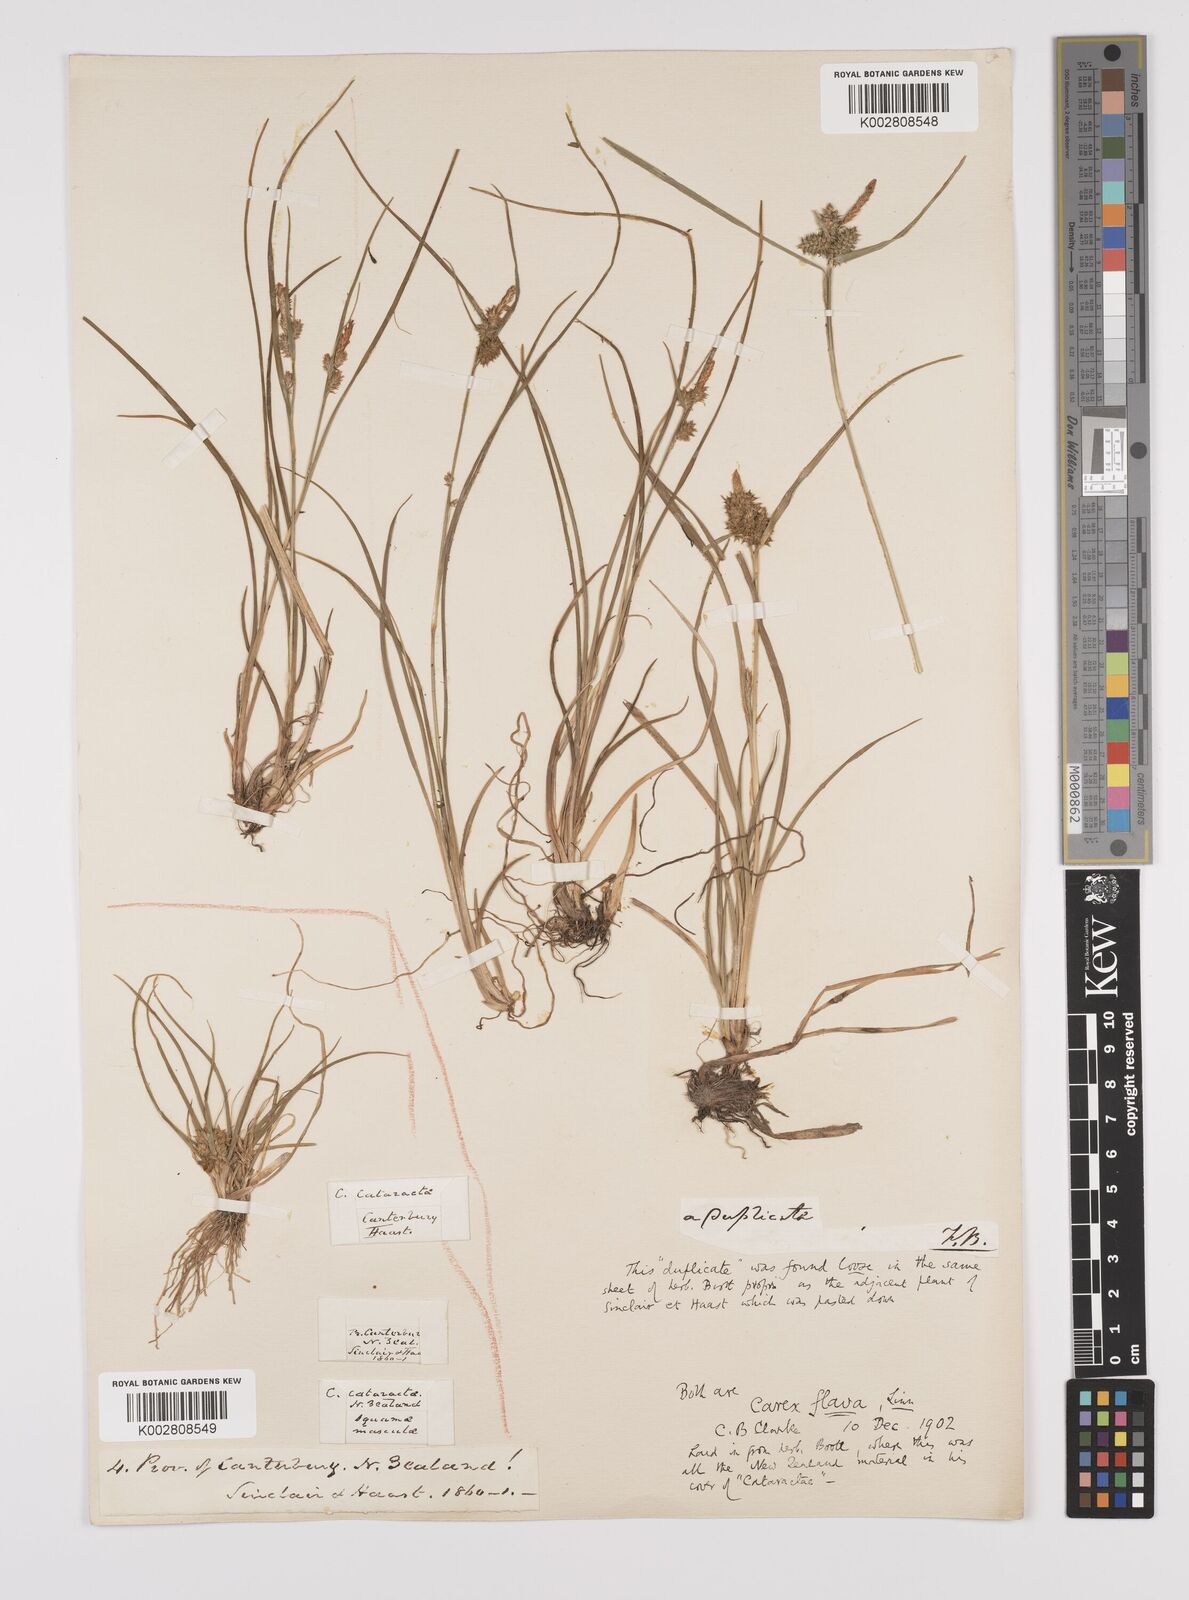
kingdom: Plantae
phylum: Tracheophyta
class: Liliopsida
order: Poales
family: Cyperaceae
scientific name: Cyperaceae
